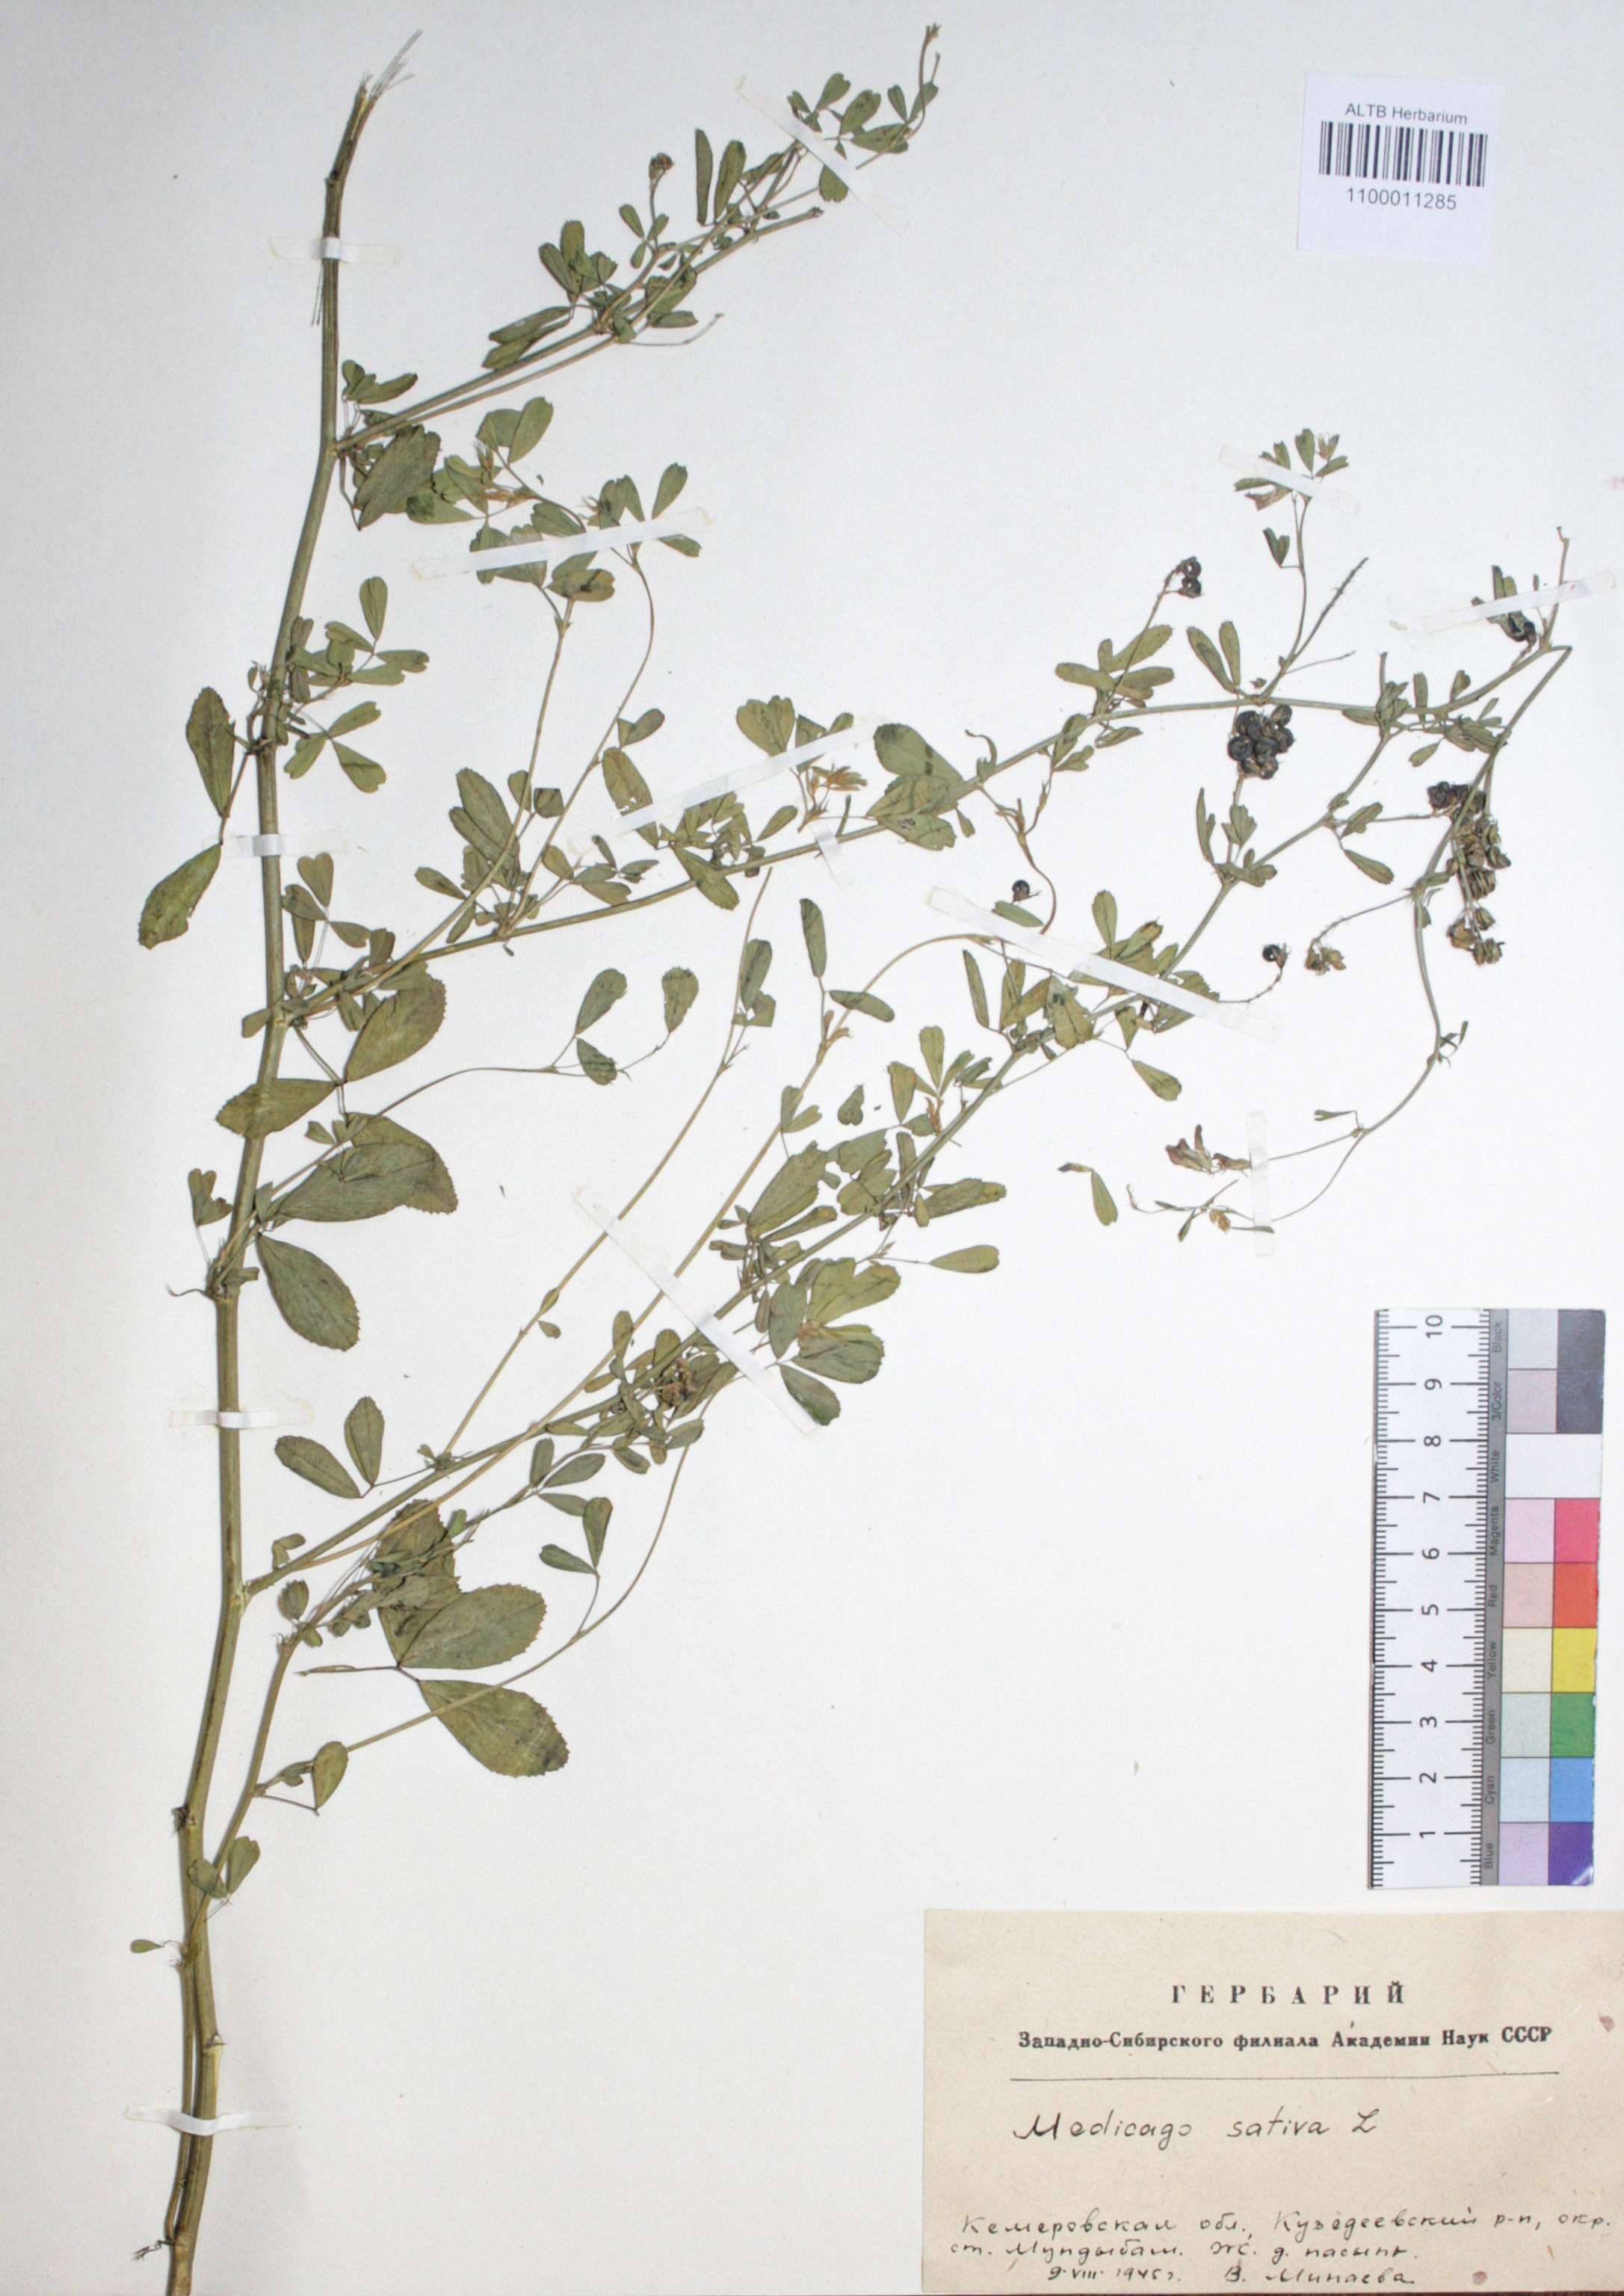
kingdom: Plantae
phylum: Tracheophyta
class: Magnoliopsida
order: Fabales
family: Fabaceae
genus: Medicago
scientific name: Medicago sativa
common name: Alfalfa
